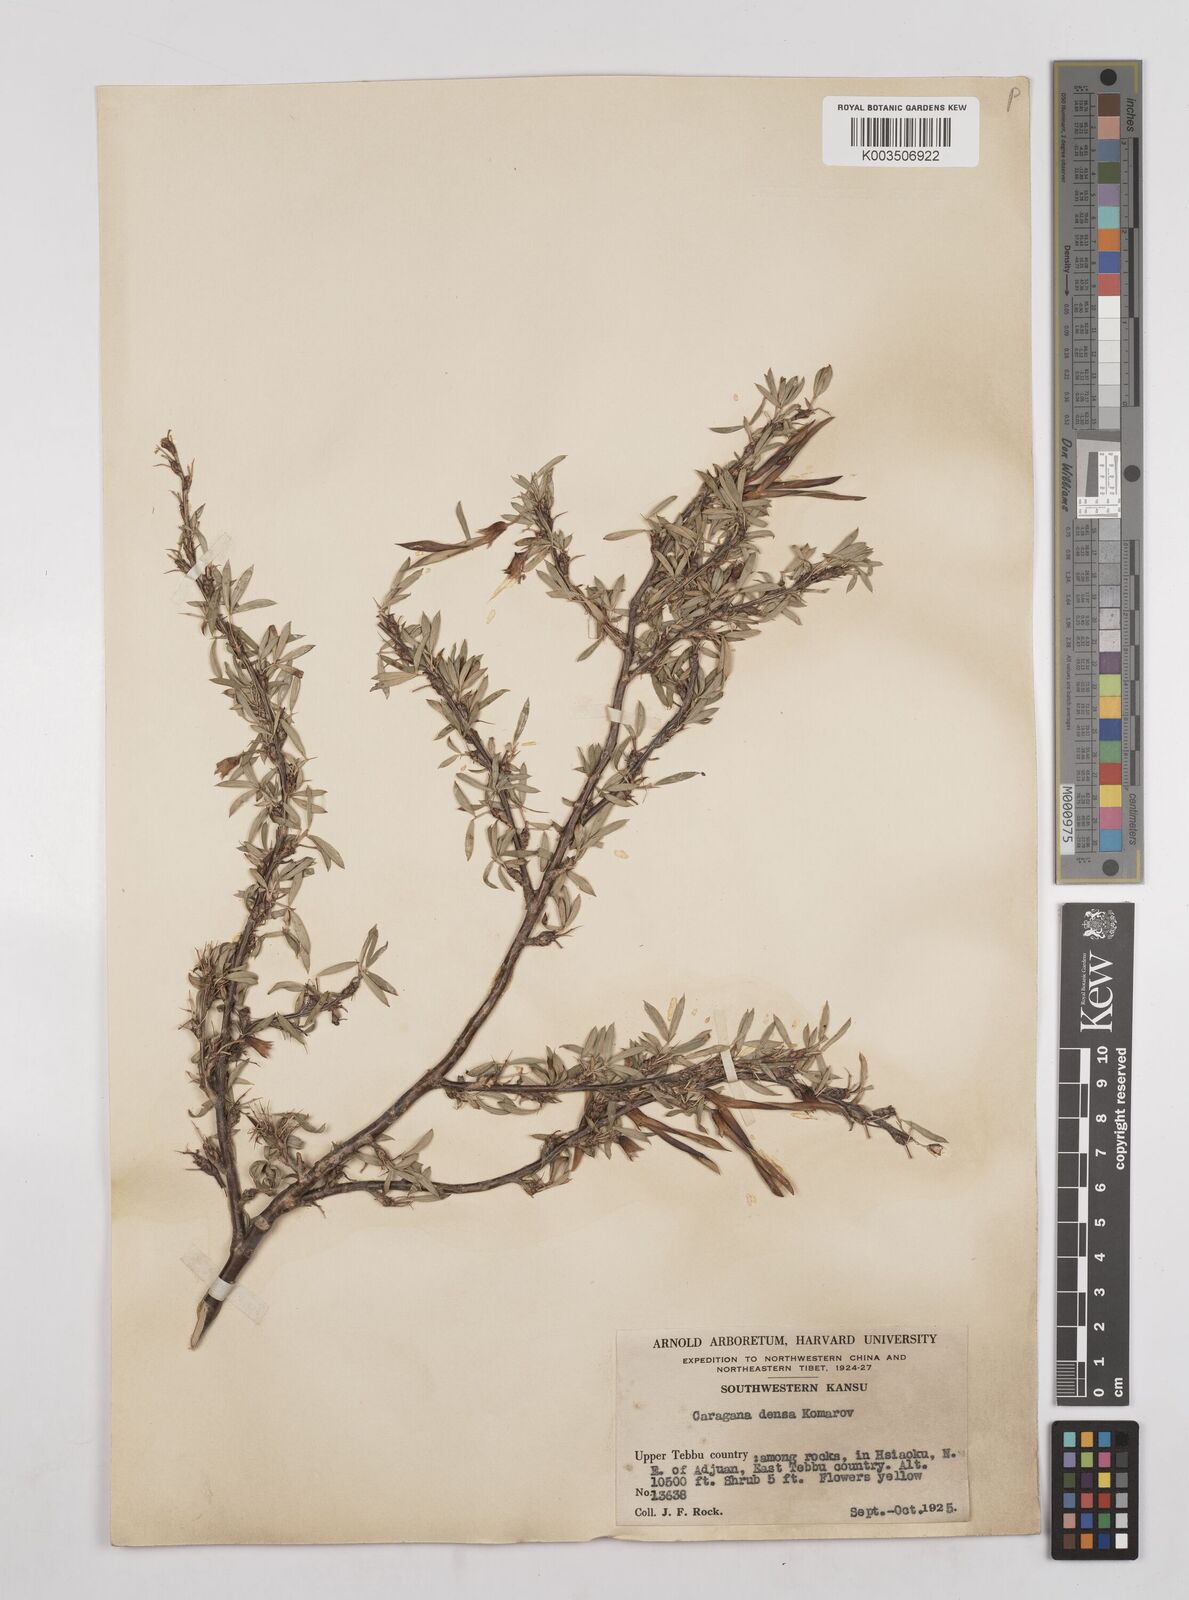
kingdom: Plantae
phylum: Tracheophyta
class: Magnoliopsida
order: Fabales
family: Fabaceae
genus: Caragana
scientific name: Caragana densa
